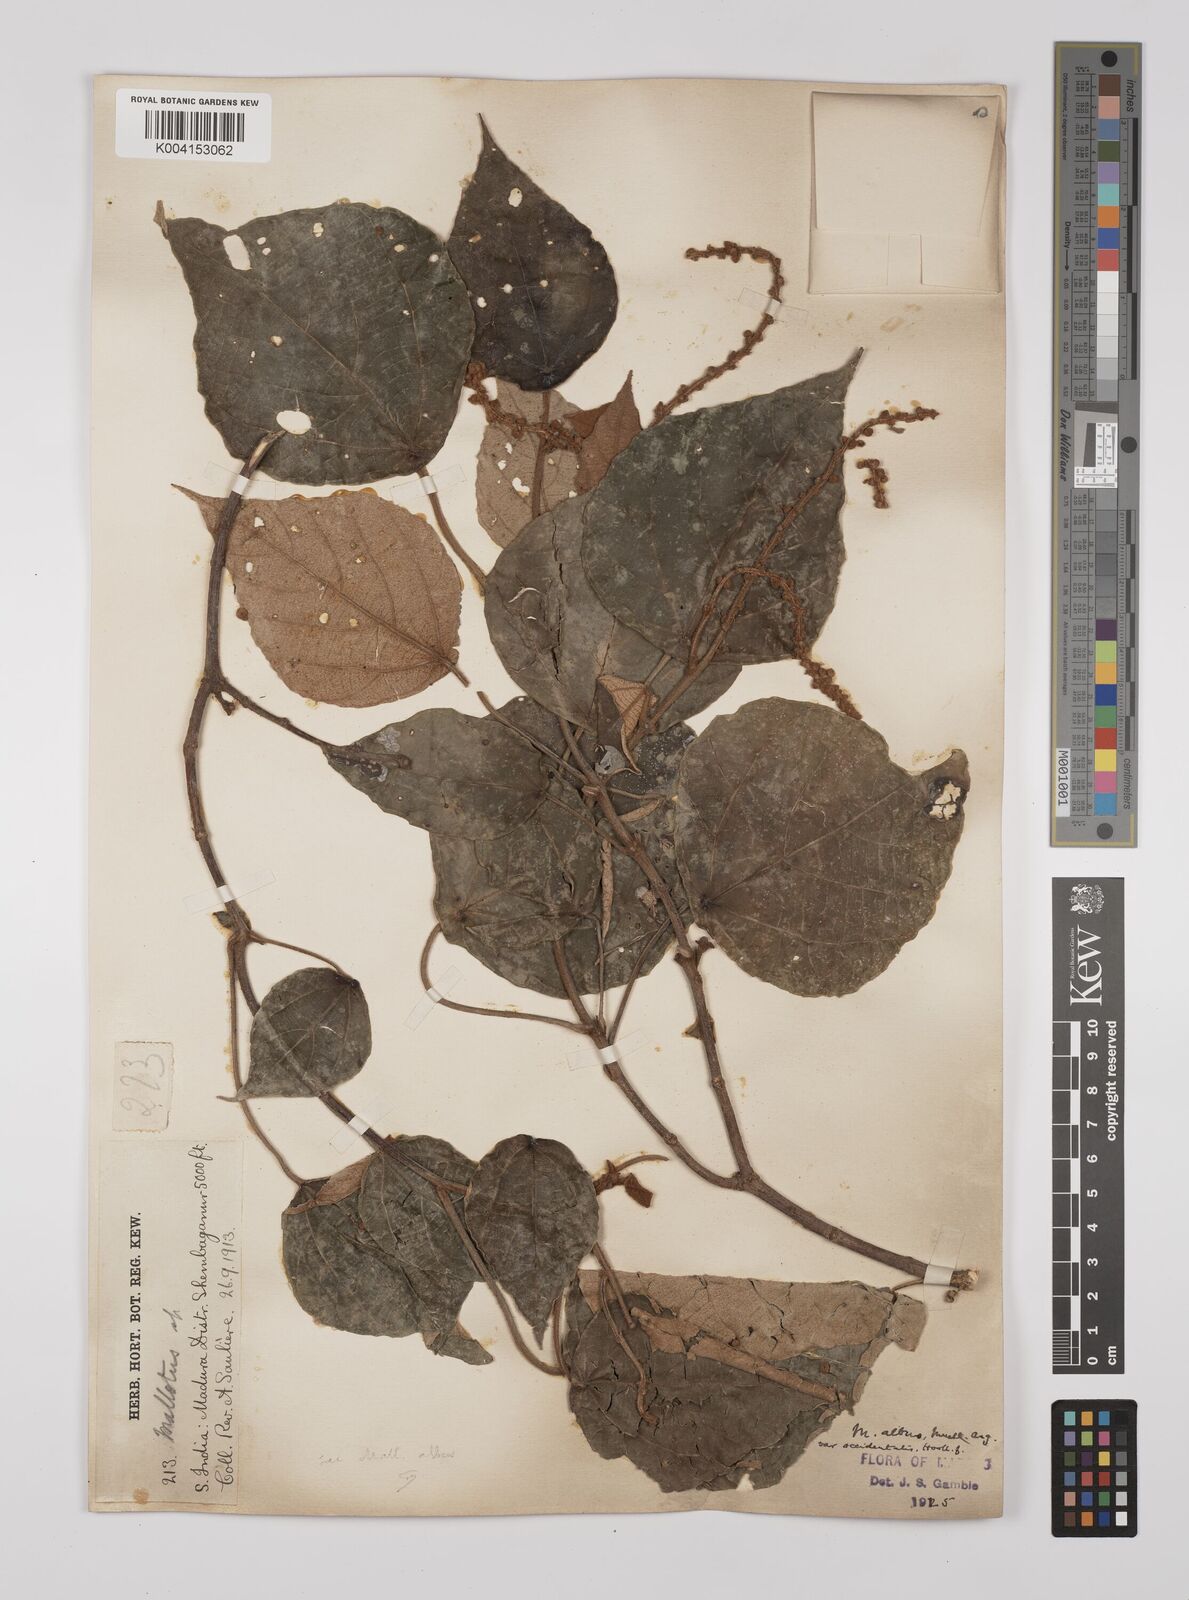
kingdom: Plantae
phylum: Tracheophyta
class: Magnoliopsida
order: Malpighiales
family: Euphorbiaceae
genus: Mallotus
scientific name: Mallotus tetracoccus
